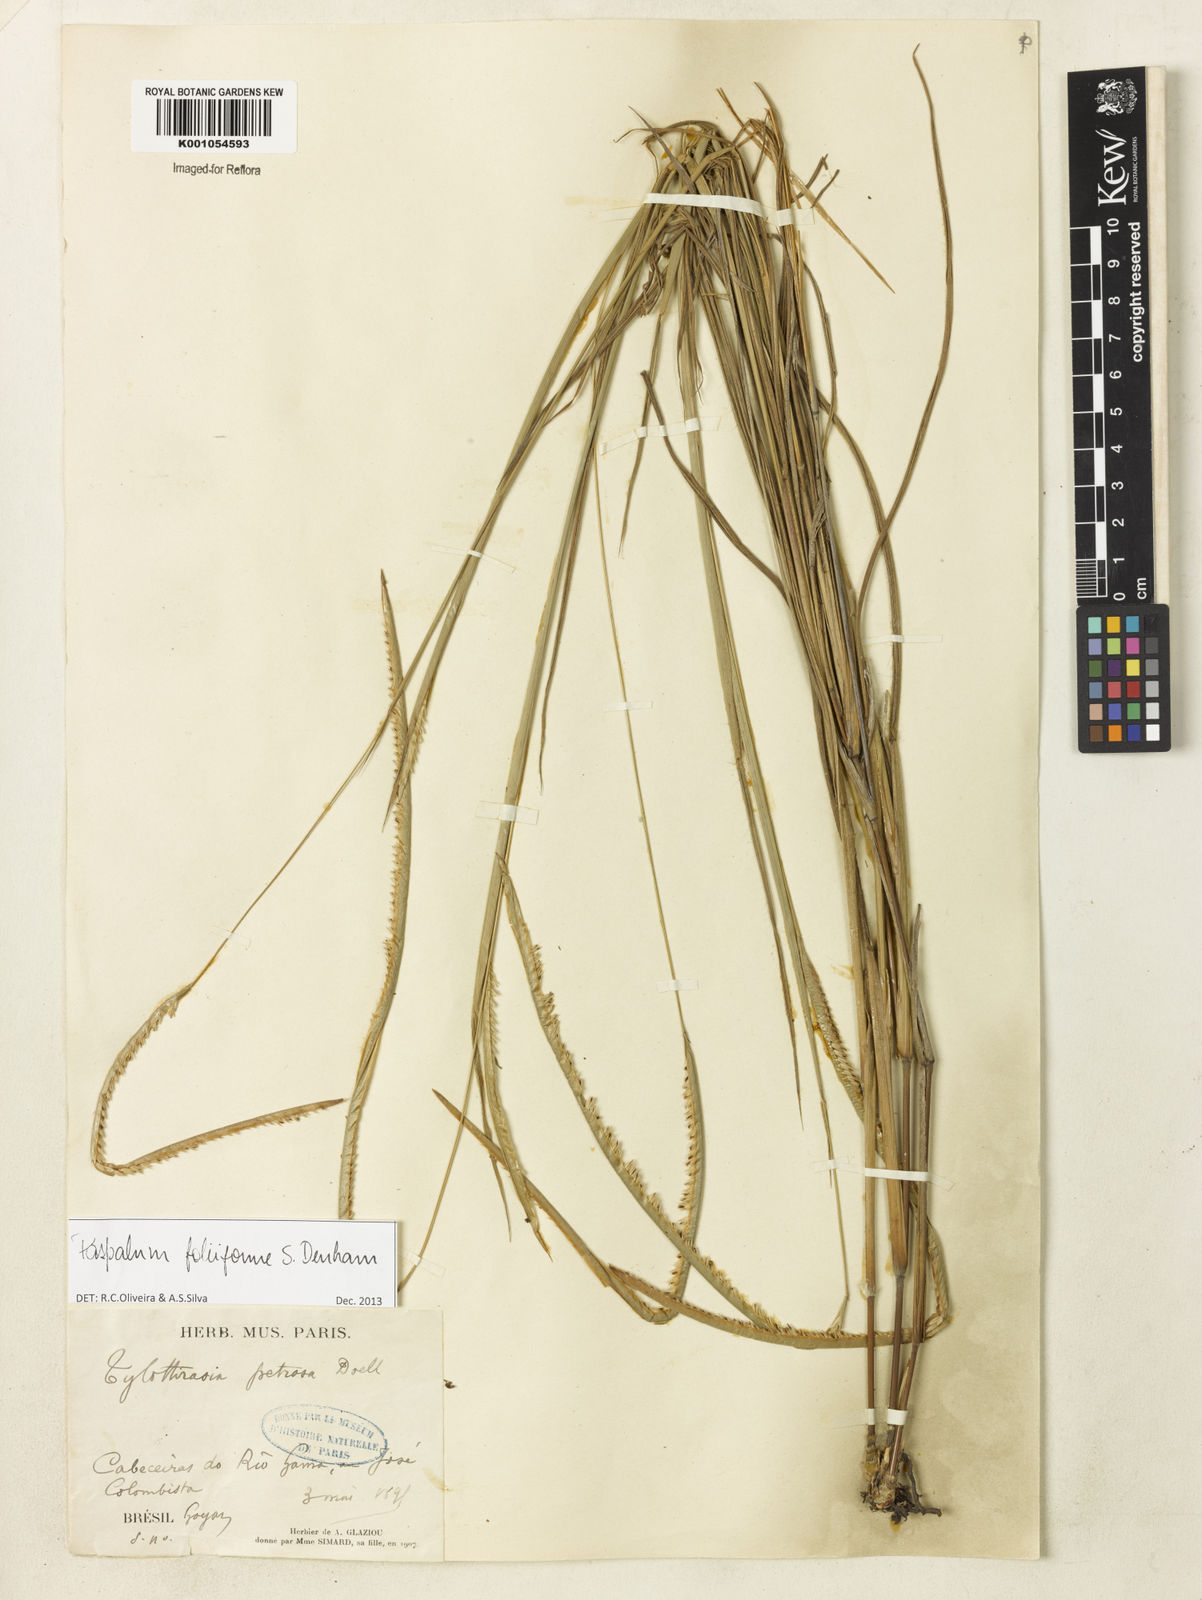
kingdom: Plantae
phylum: Tracheophyta
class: Liliopsida
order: Poales
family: Poaceae
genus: Paspalum
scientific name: Paspalum foliiforme
